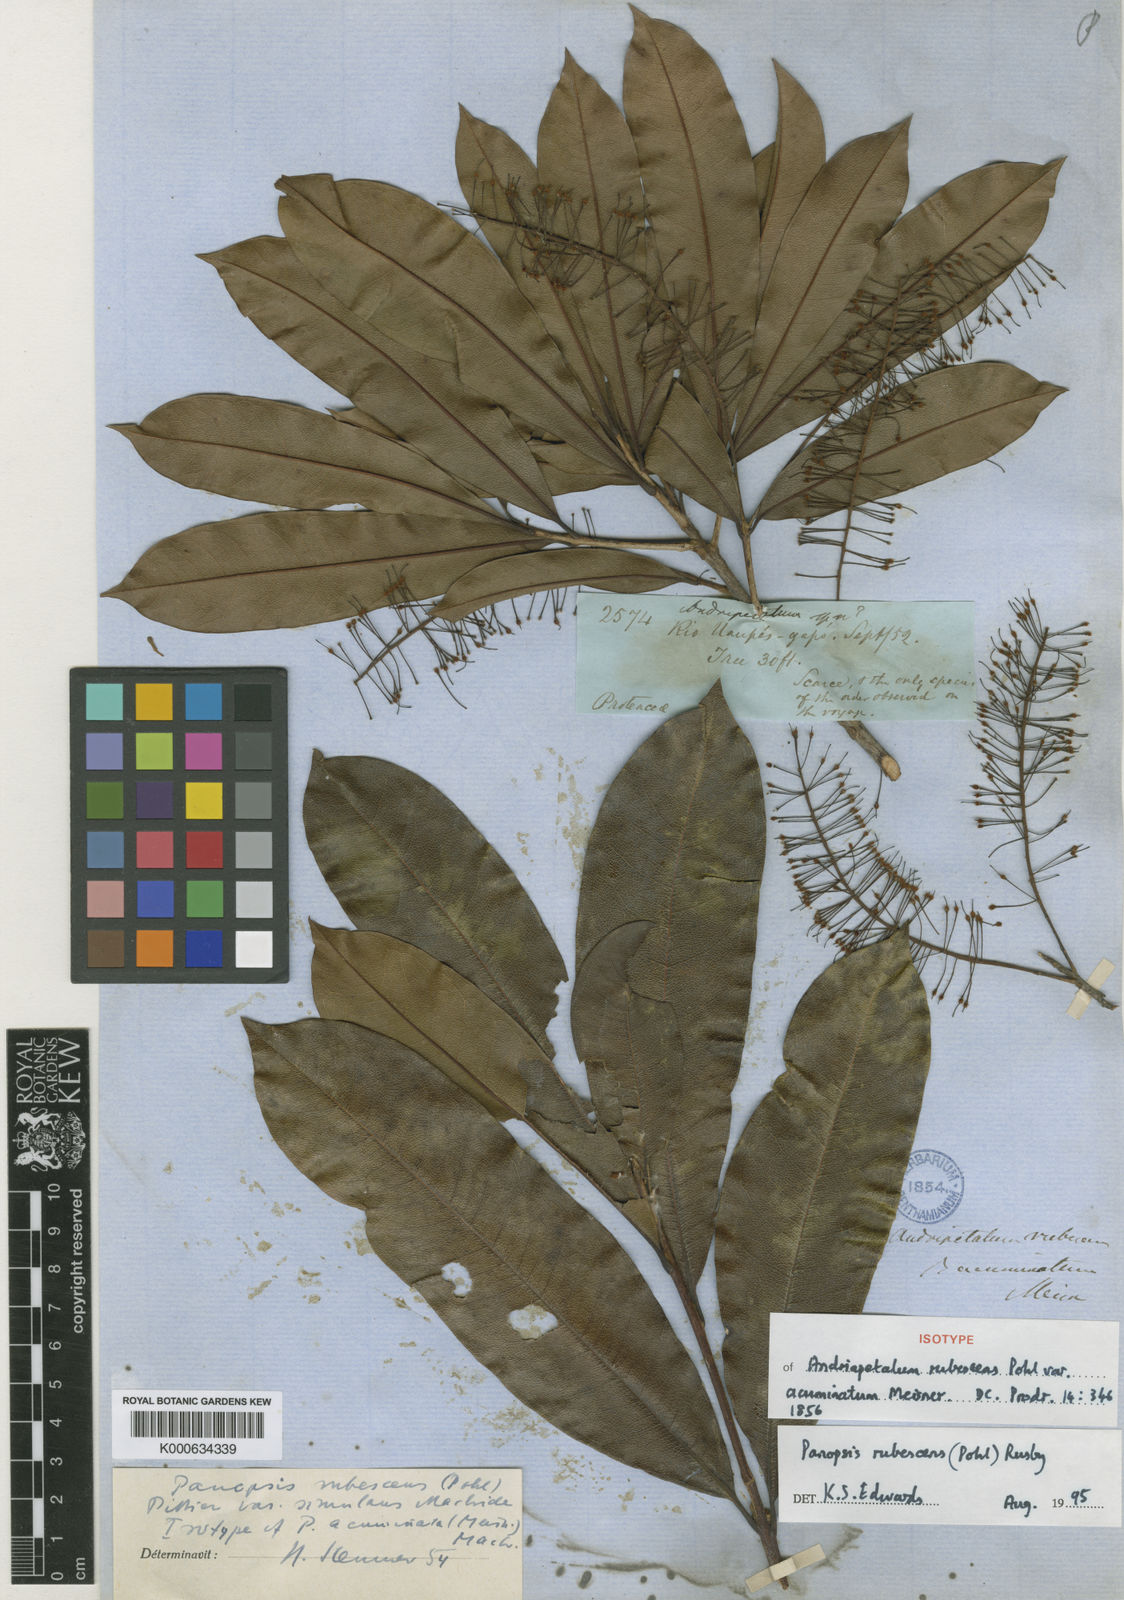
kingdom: Plantae
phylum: Tracheophyta
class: Magnoliopsida
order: Proteales
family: Proteaceae
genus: Panopsis
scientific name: Panopsis
